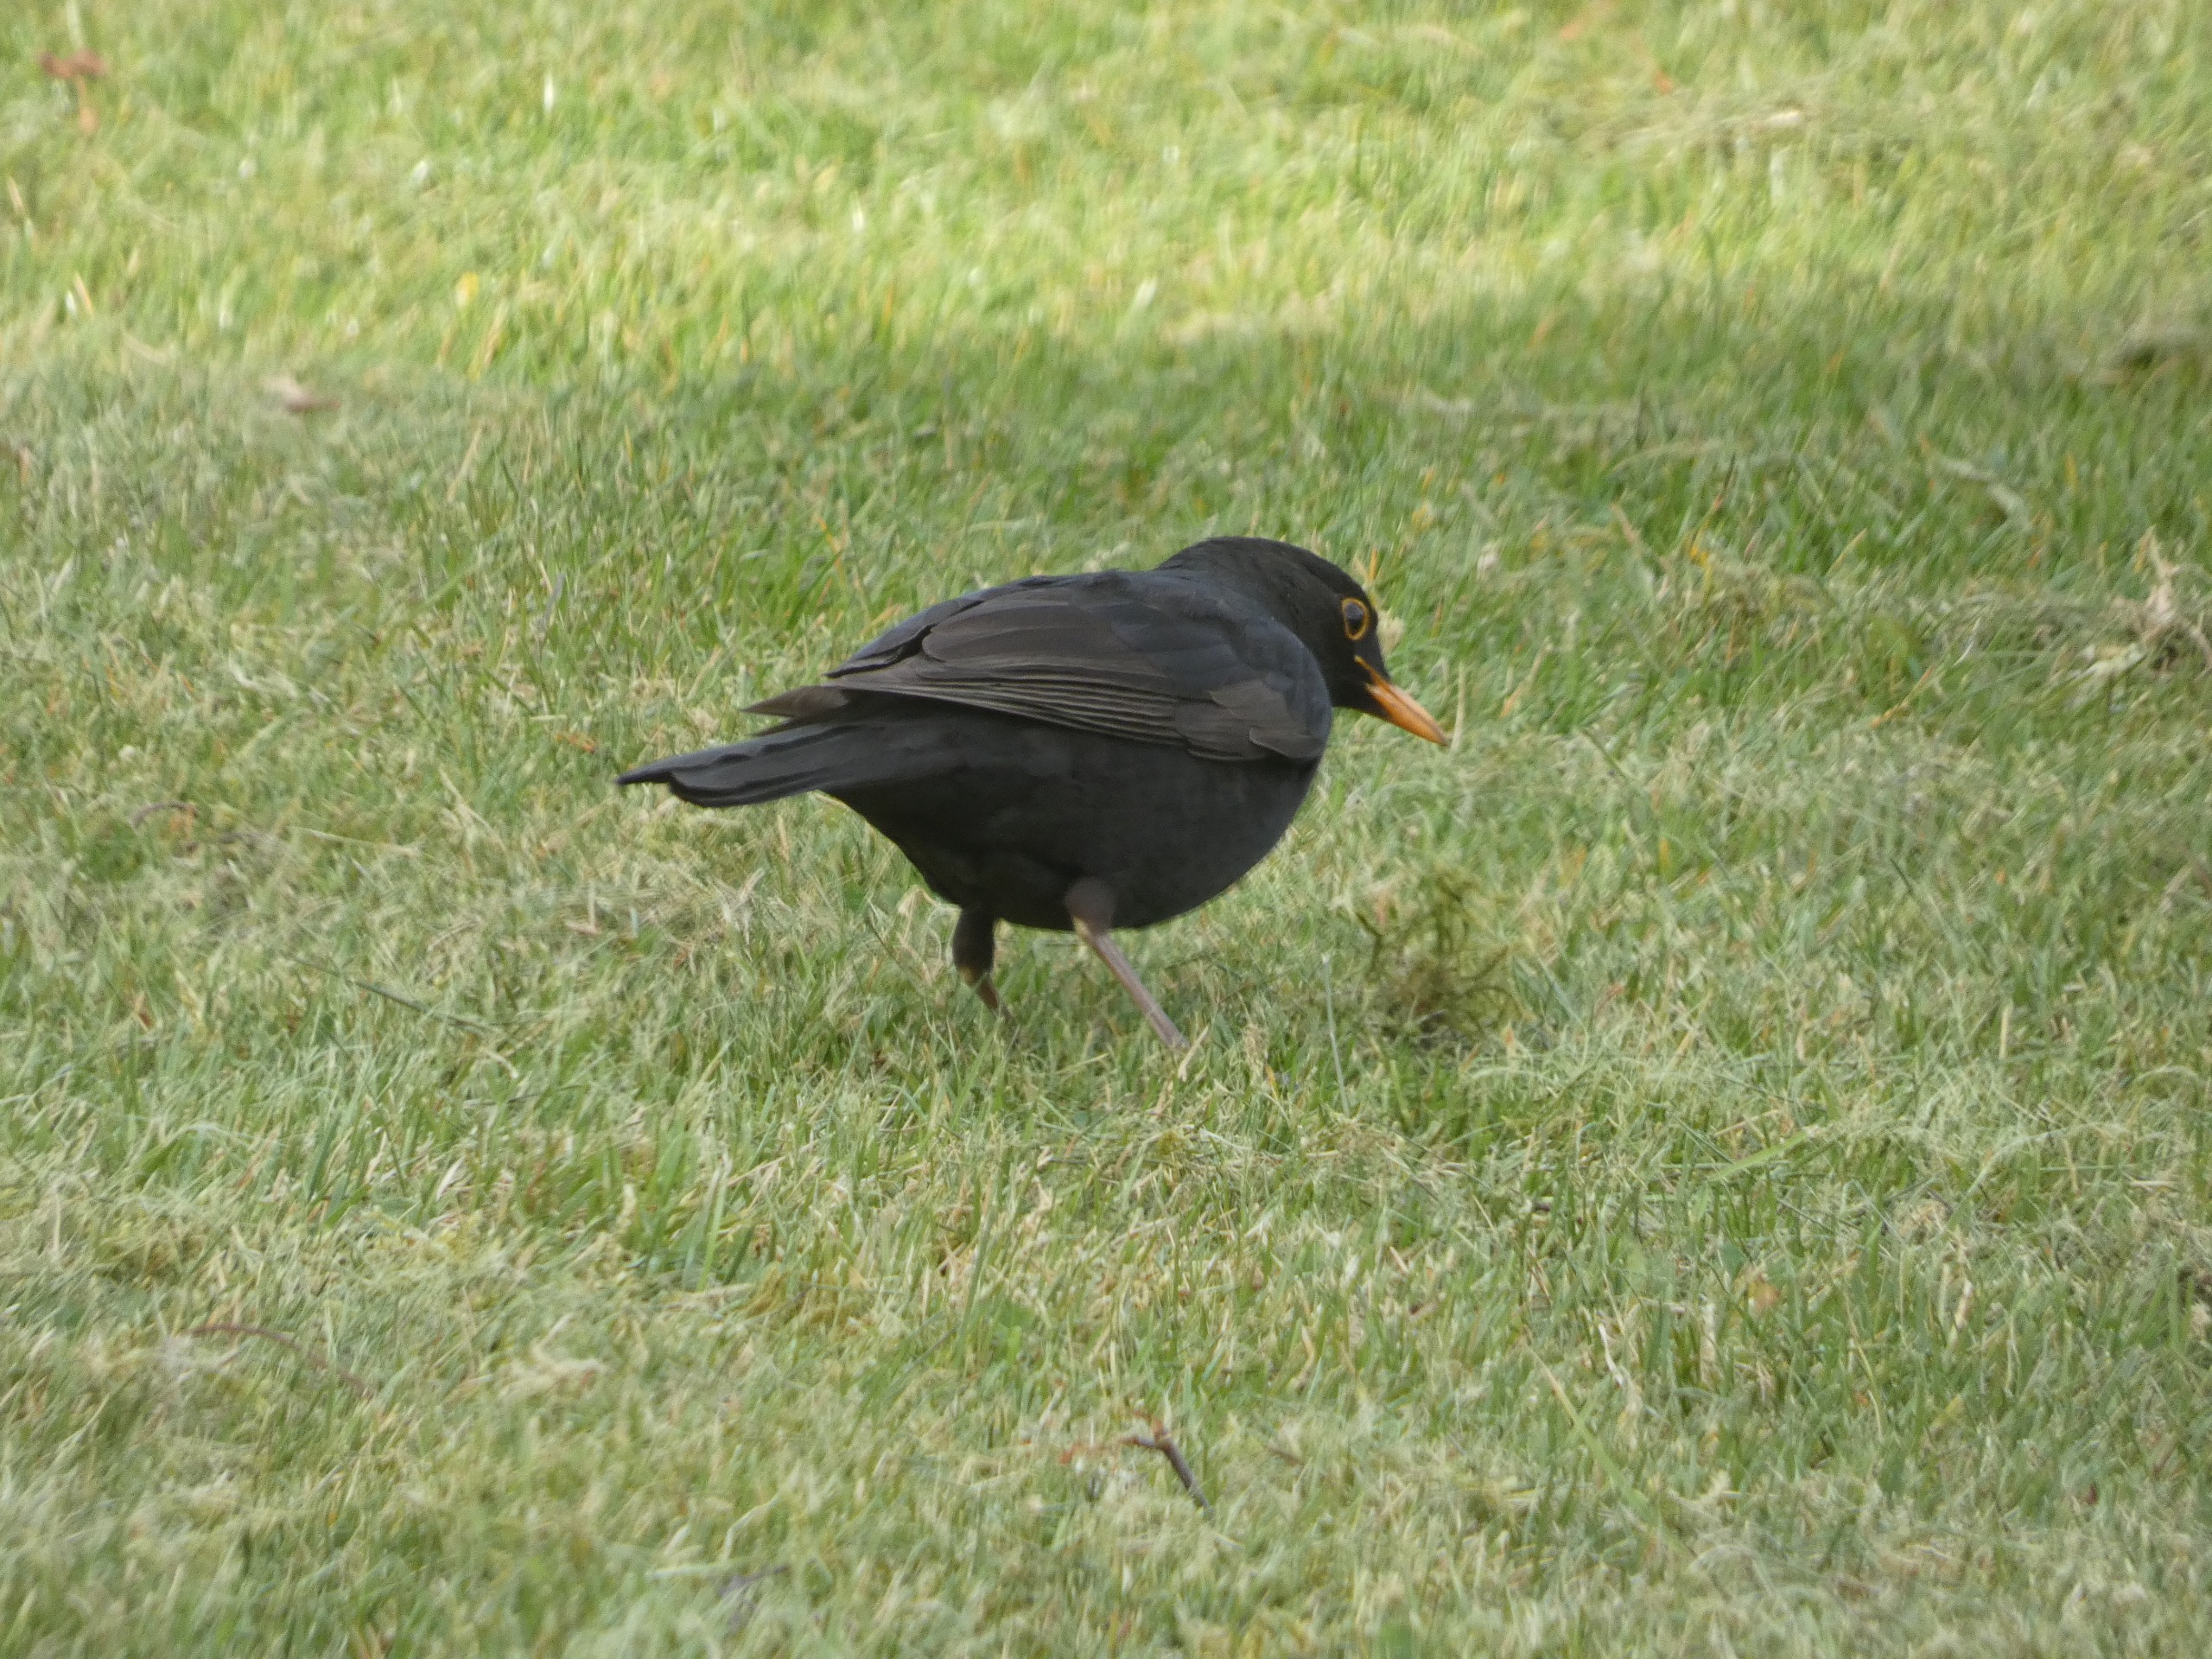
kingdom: Animalia
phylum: Chordata
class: Aves
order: Passeriformes
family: Turdidae
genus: Turdus
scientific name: Turdus merula
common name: Solsort
